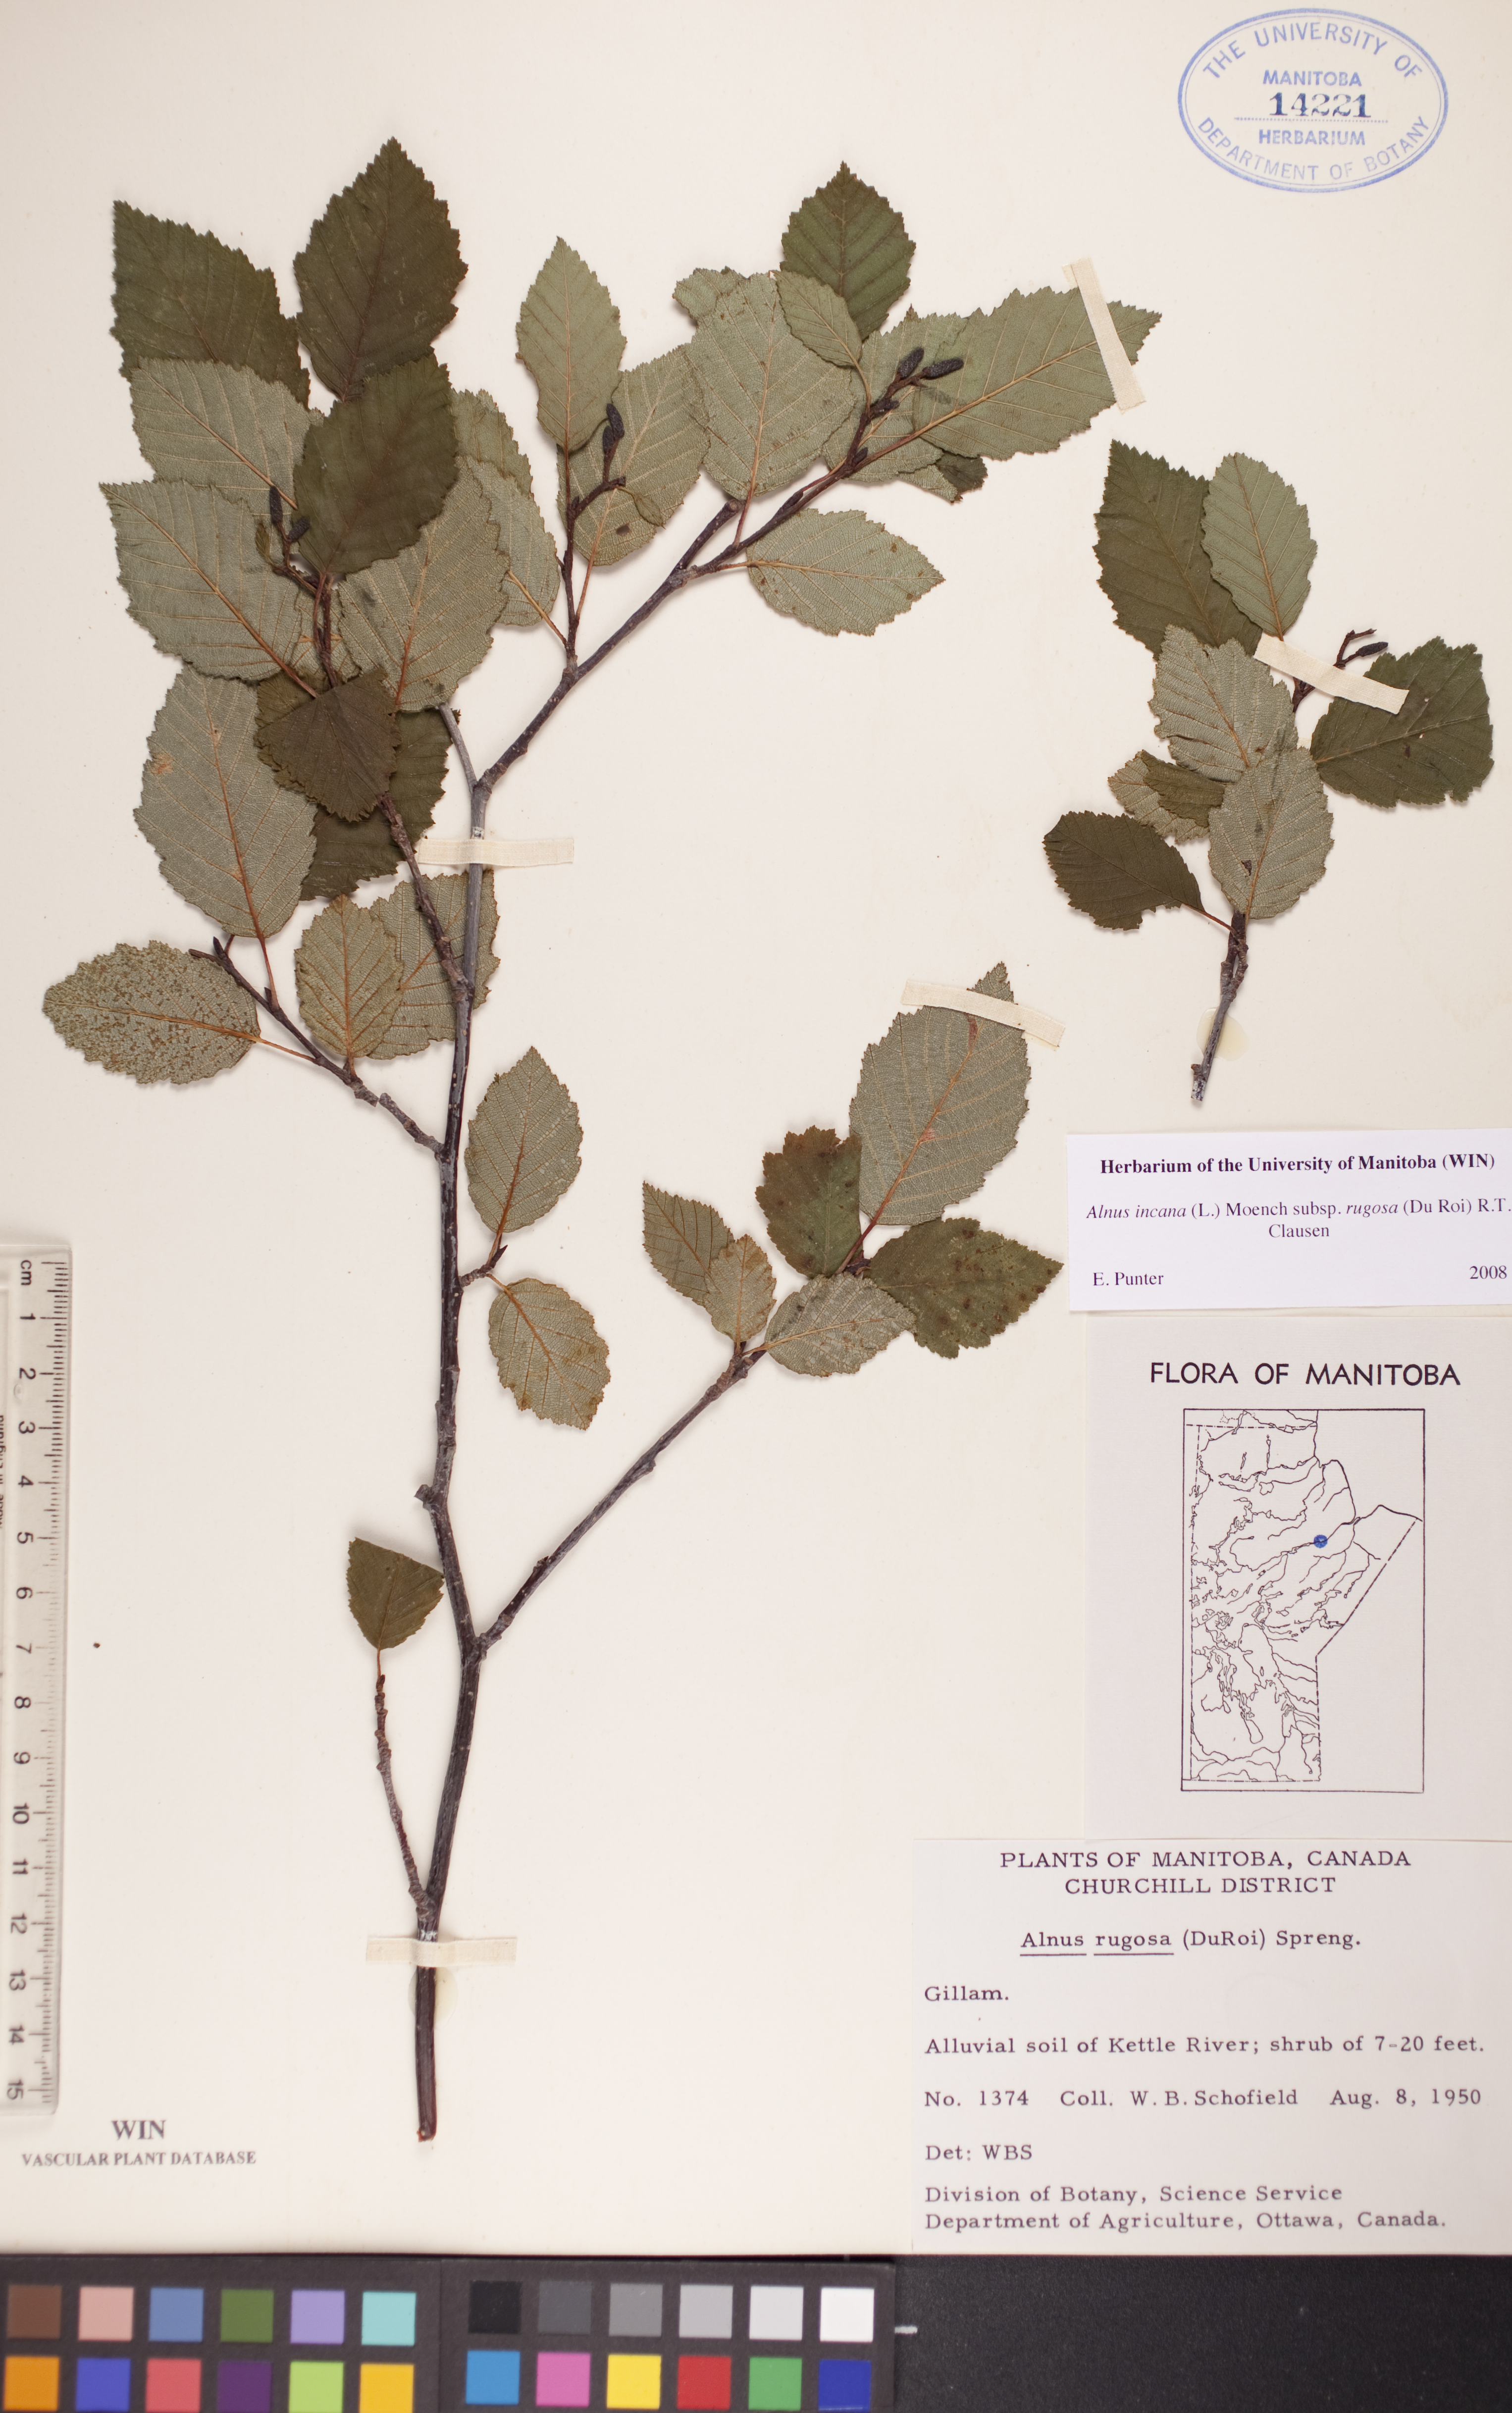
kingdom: Plantae
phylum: Tracheophyta
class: Magnoliopsida
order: Fagales
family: Betulaceae
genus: Alnus
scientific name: Alnus incana
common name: Grey alder
